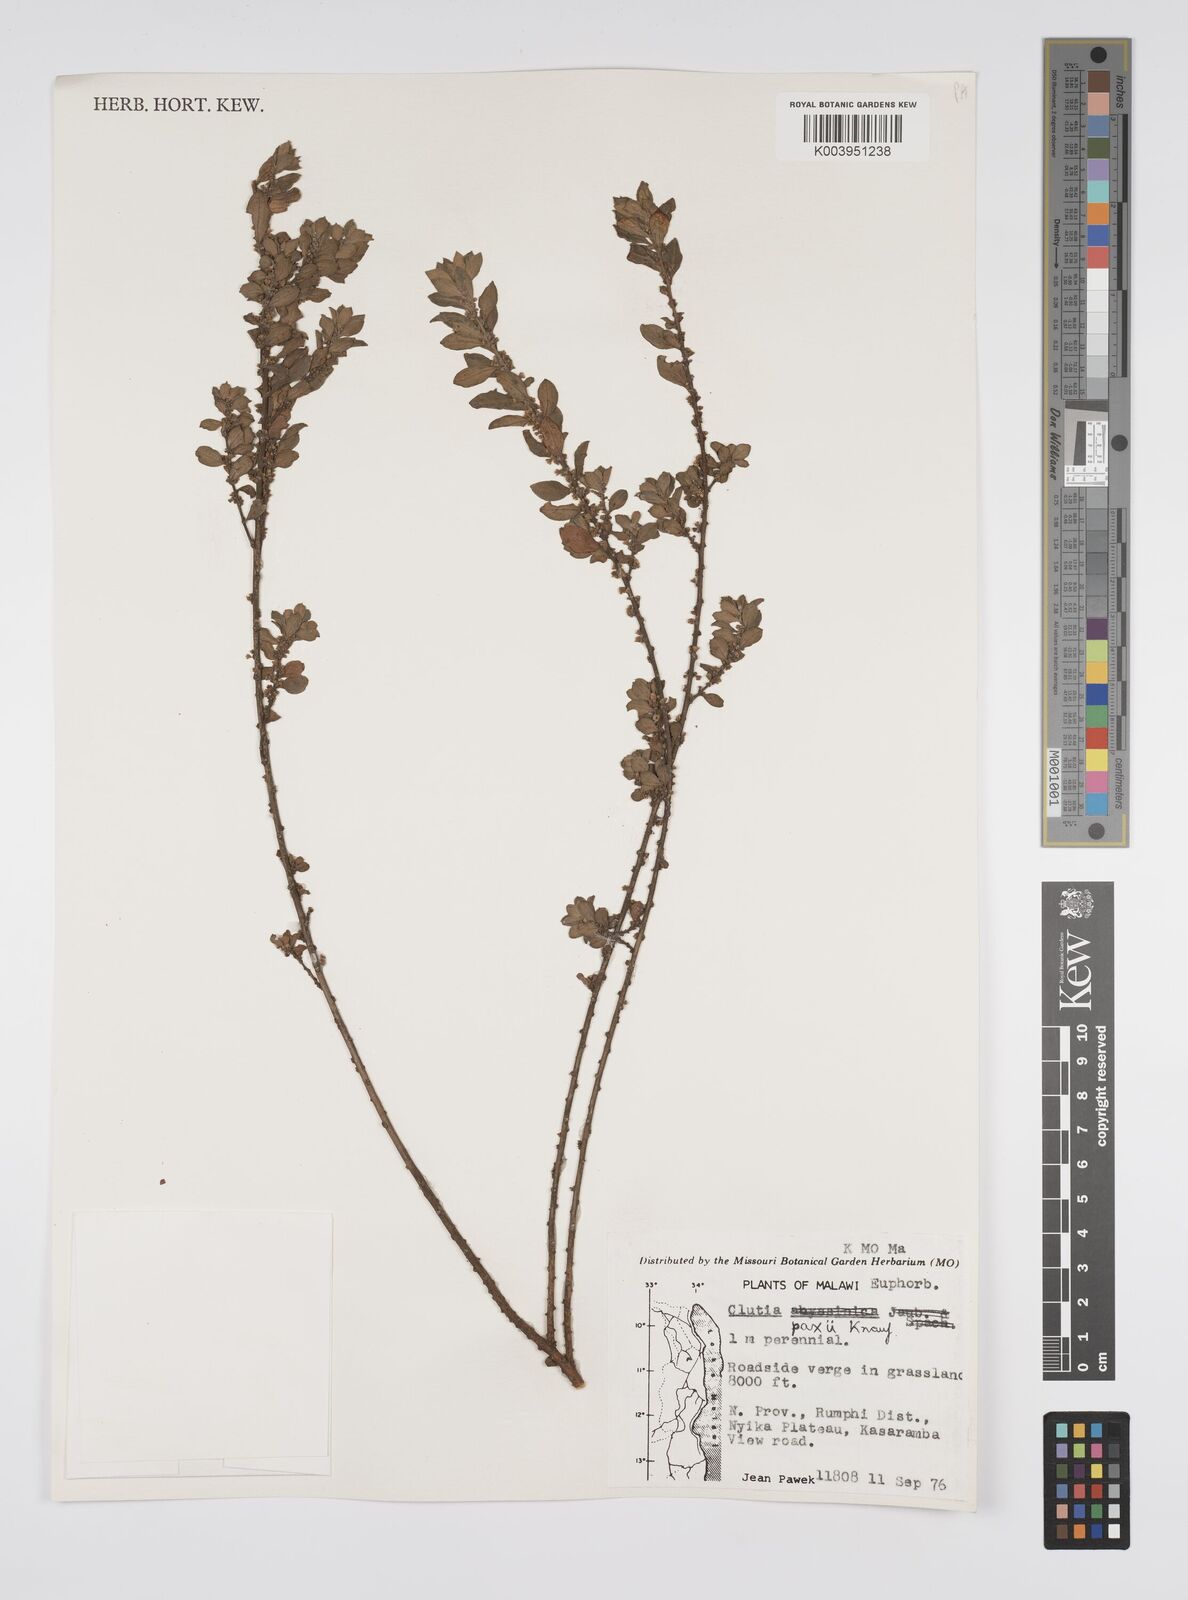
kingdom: Plantae
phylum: Tracheophyta
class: Magnoliopsida
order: Malpighiales
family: Peraceae
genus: Clutia
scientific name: Clutia paxii
